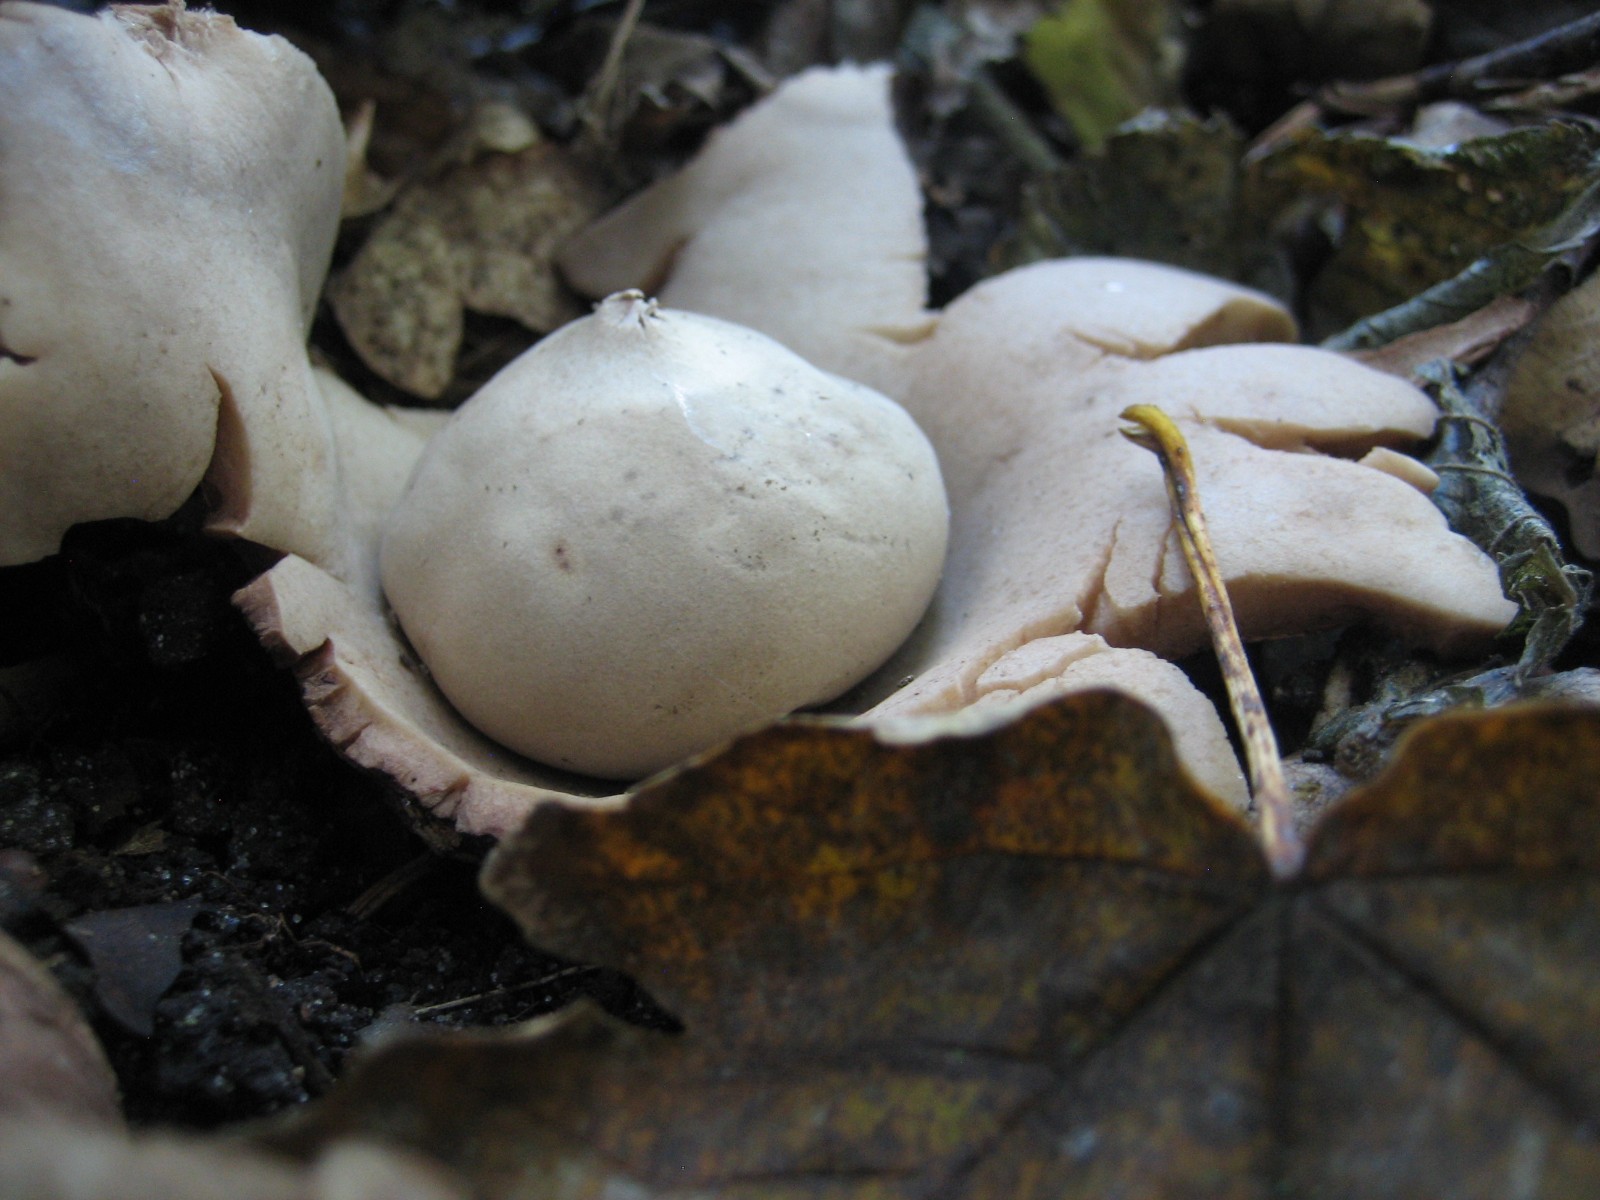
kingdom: Fungi
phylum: Basidiomycota
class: Agaricomycetes
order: Geastrales
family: Geastraceae
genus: Geastrum
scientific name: Geastrum michelianum
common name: kødet stjernebold
